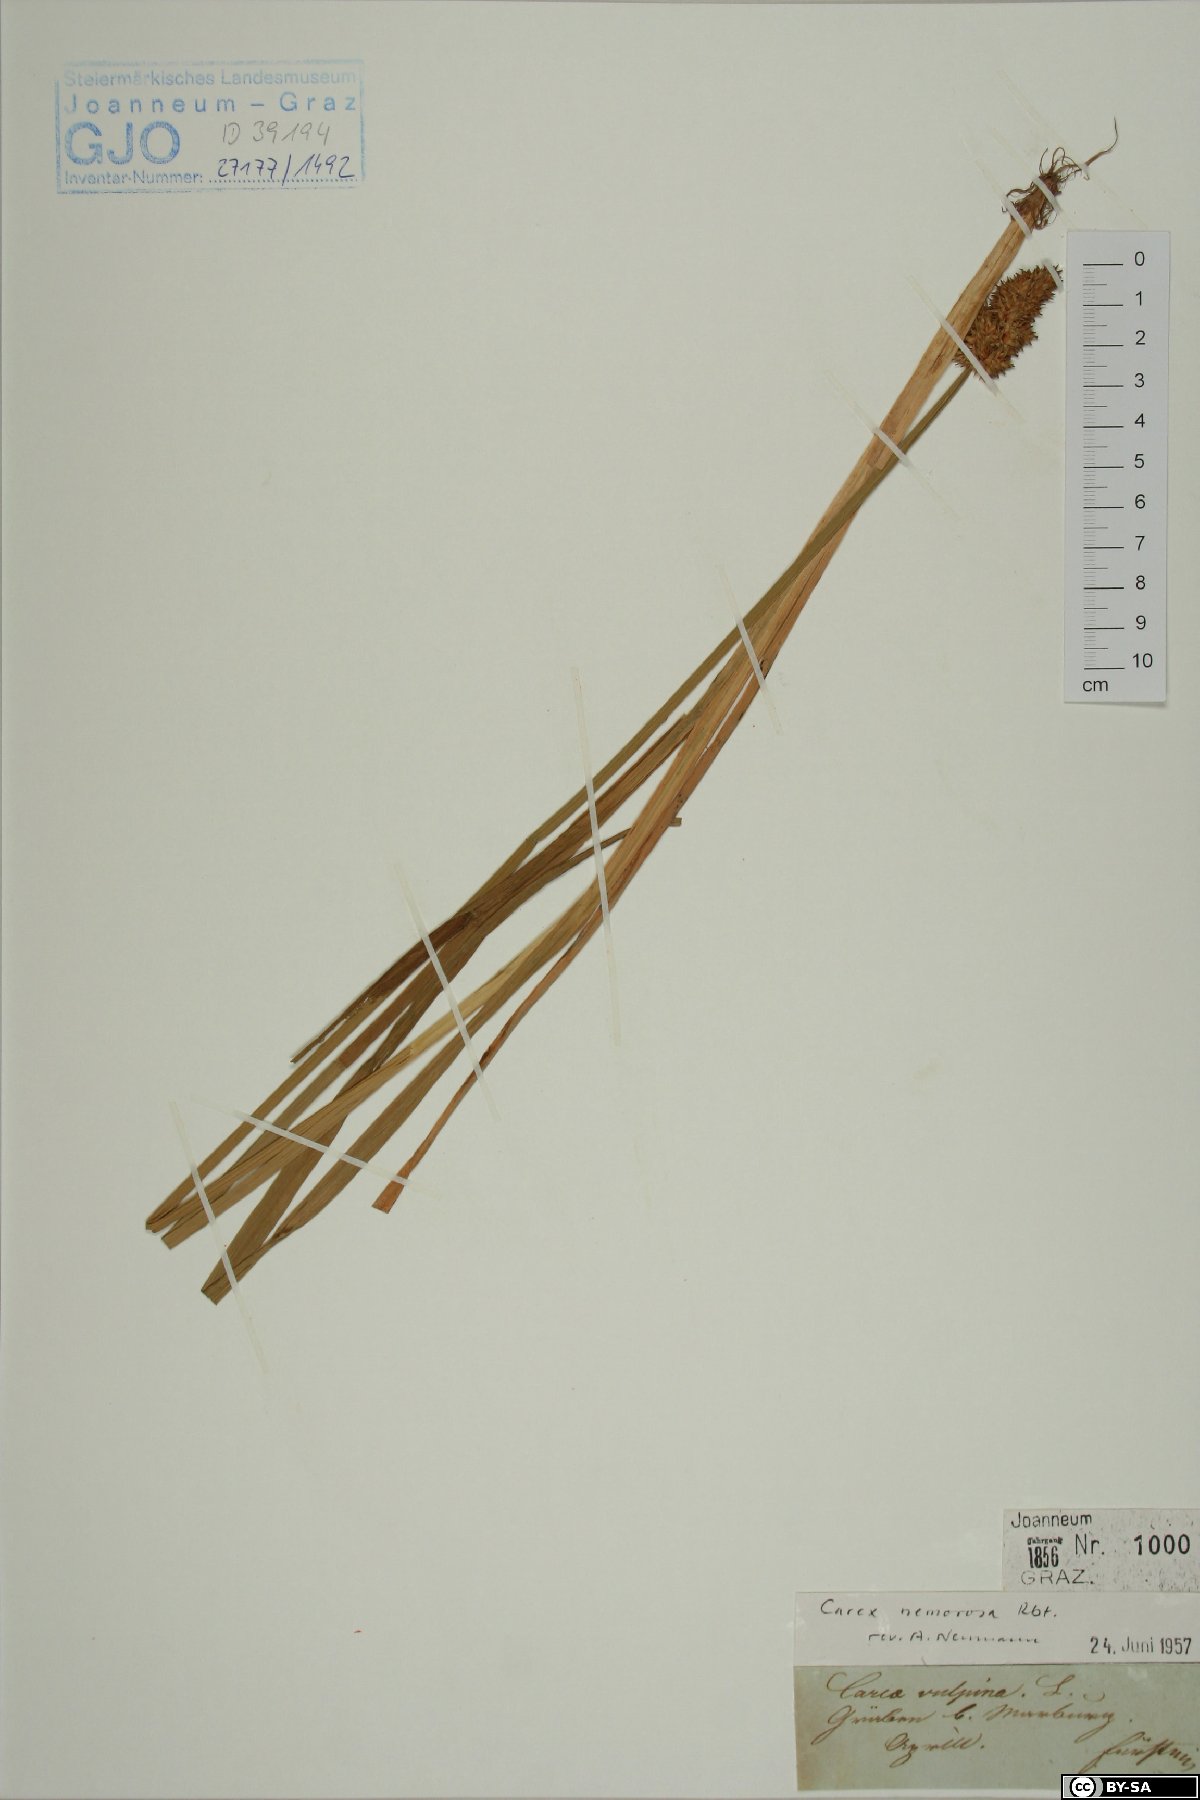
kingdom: Plantae
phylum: Tracheophyta
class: Liliopsida
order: Poales
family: Cyperaceae
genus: Carex
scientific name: Carex otrubae
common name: False fox-sedge
